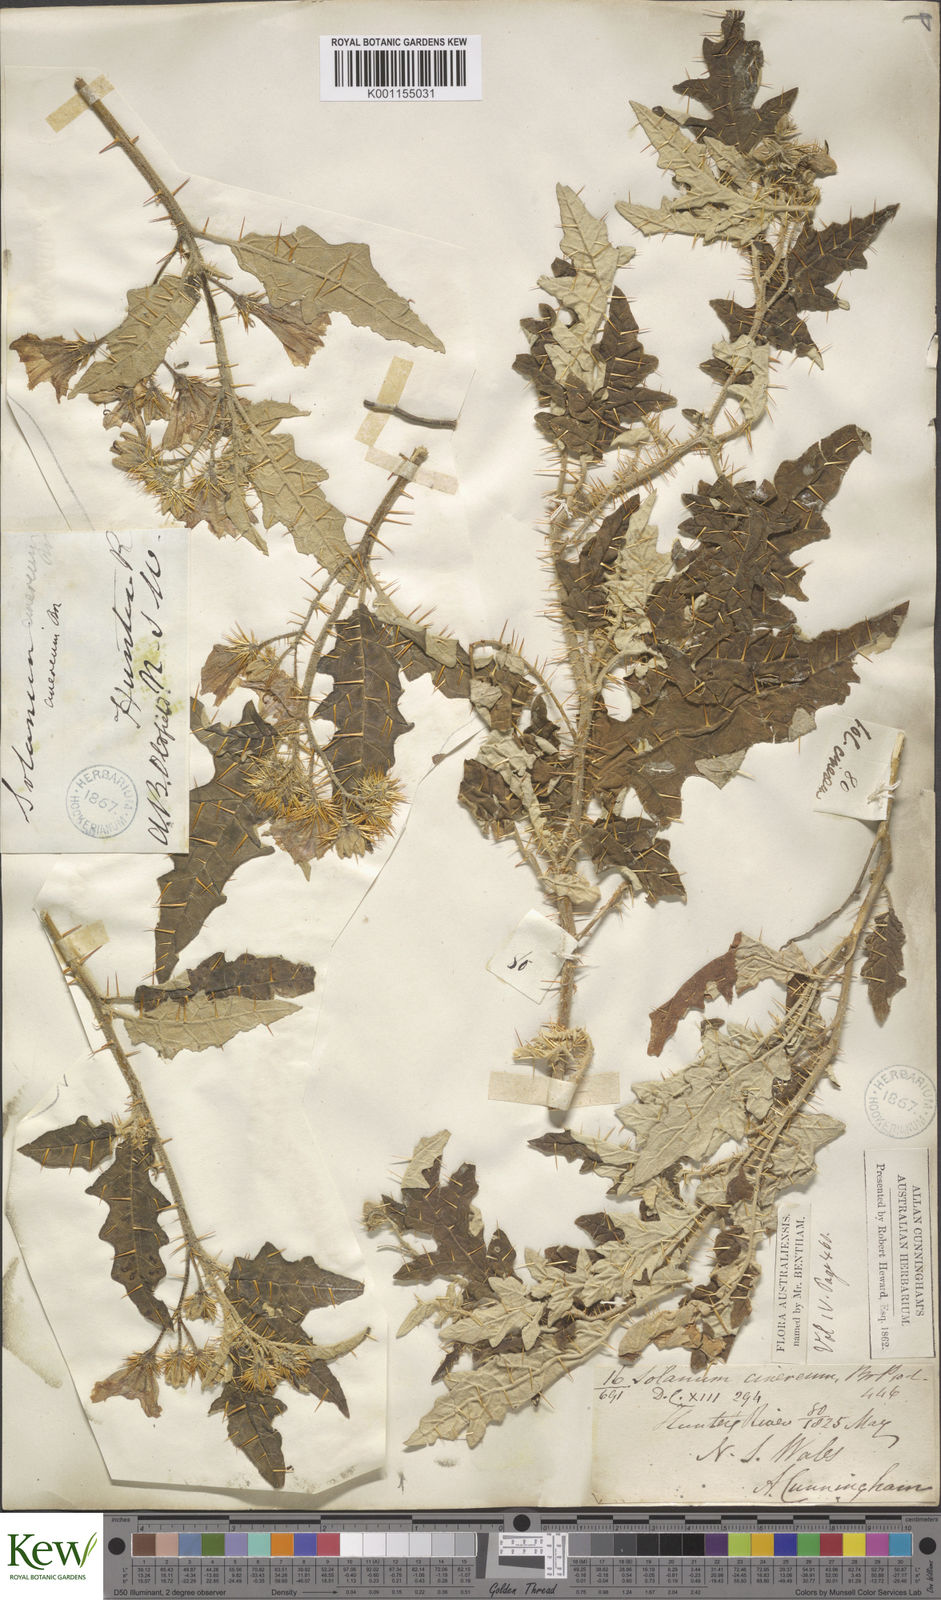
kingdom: Plantae
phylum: Tracheophyta
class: Magnoliopsida
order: Solanales
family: Solanaceae
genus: Solanum
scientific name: Solanum cinereum
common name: Narrawa-bur
